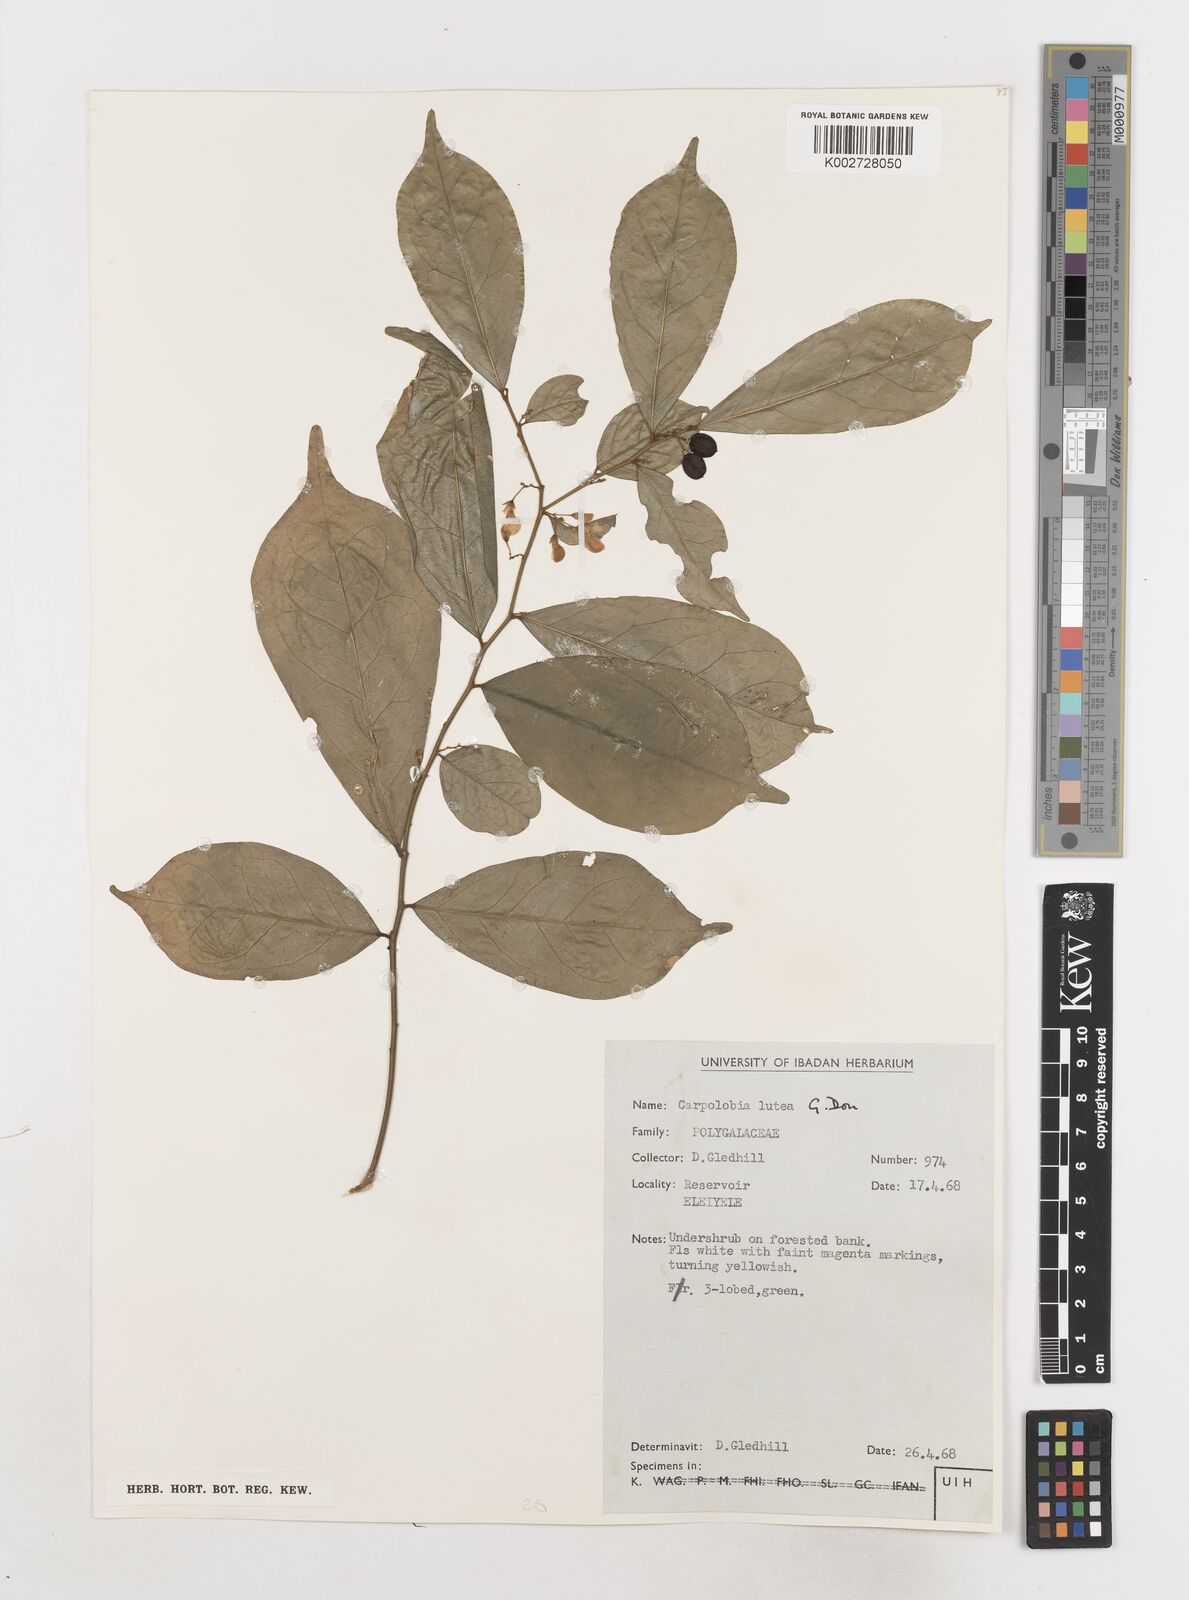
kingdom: Plantae
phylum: Tracheophyta
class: Magnoliopsida
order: Fabales
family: Polygalaceae
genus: Carpolobia
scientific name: Carpolobia lutea
